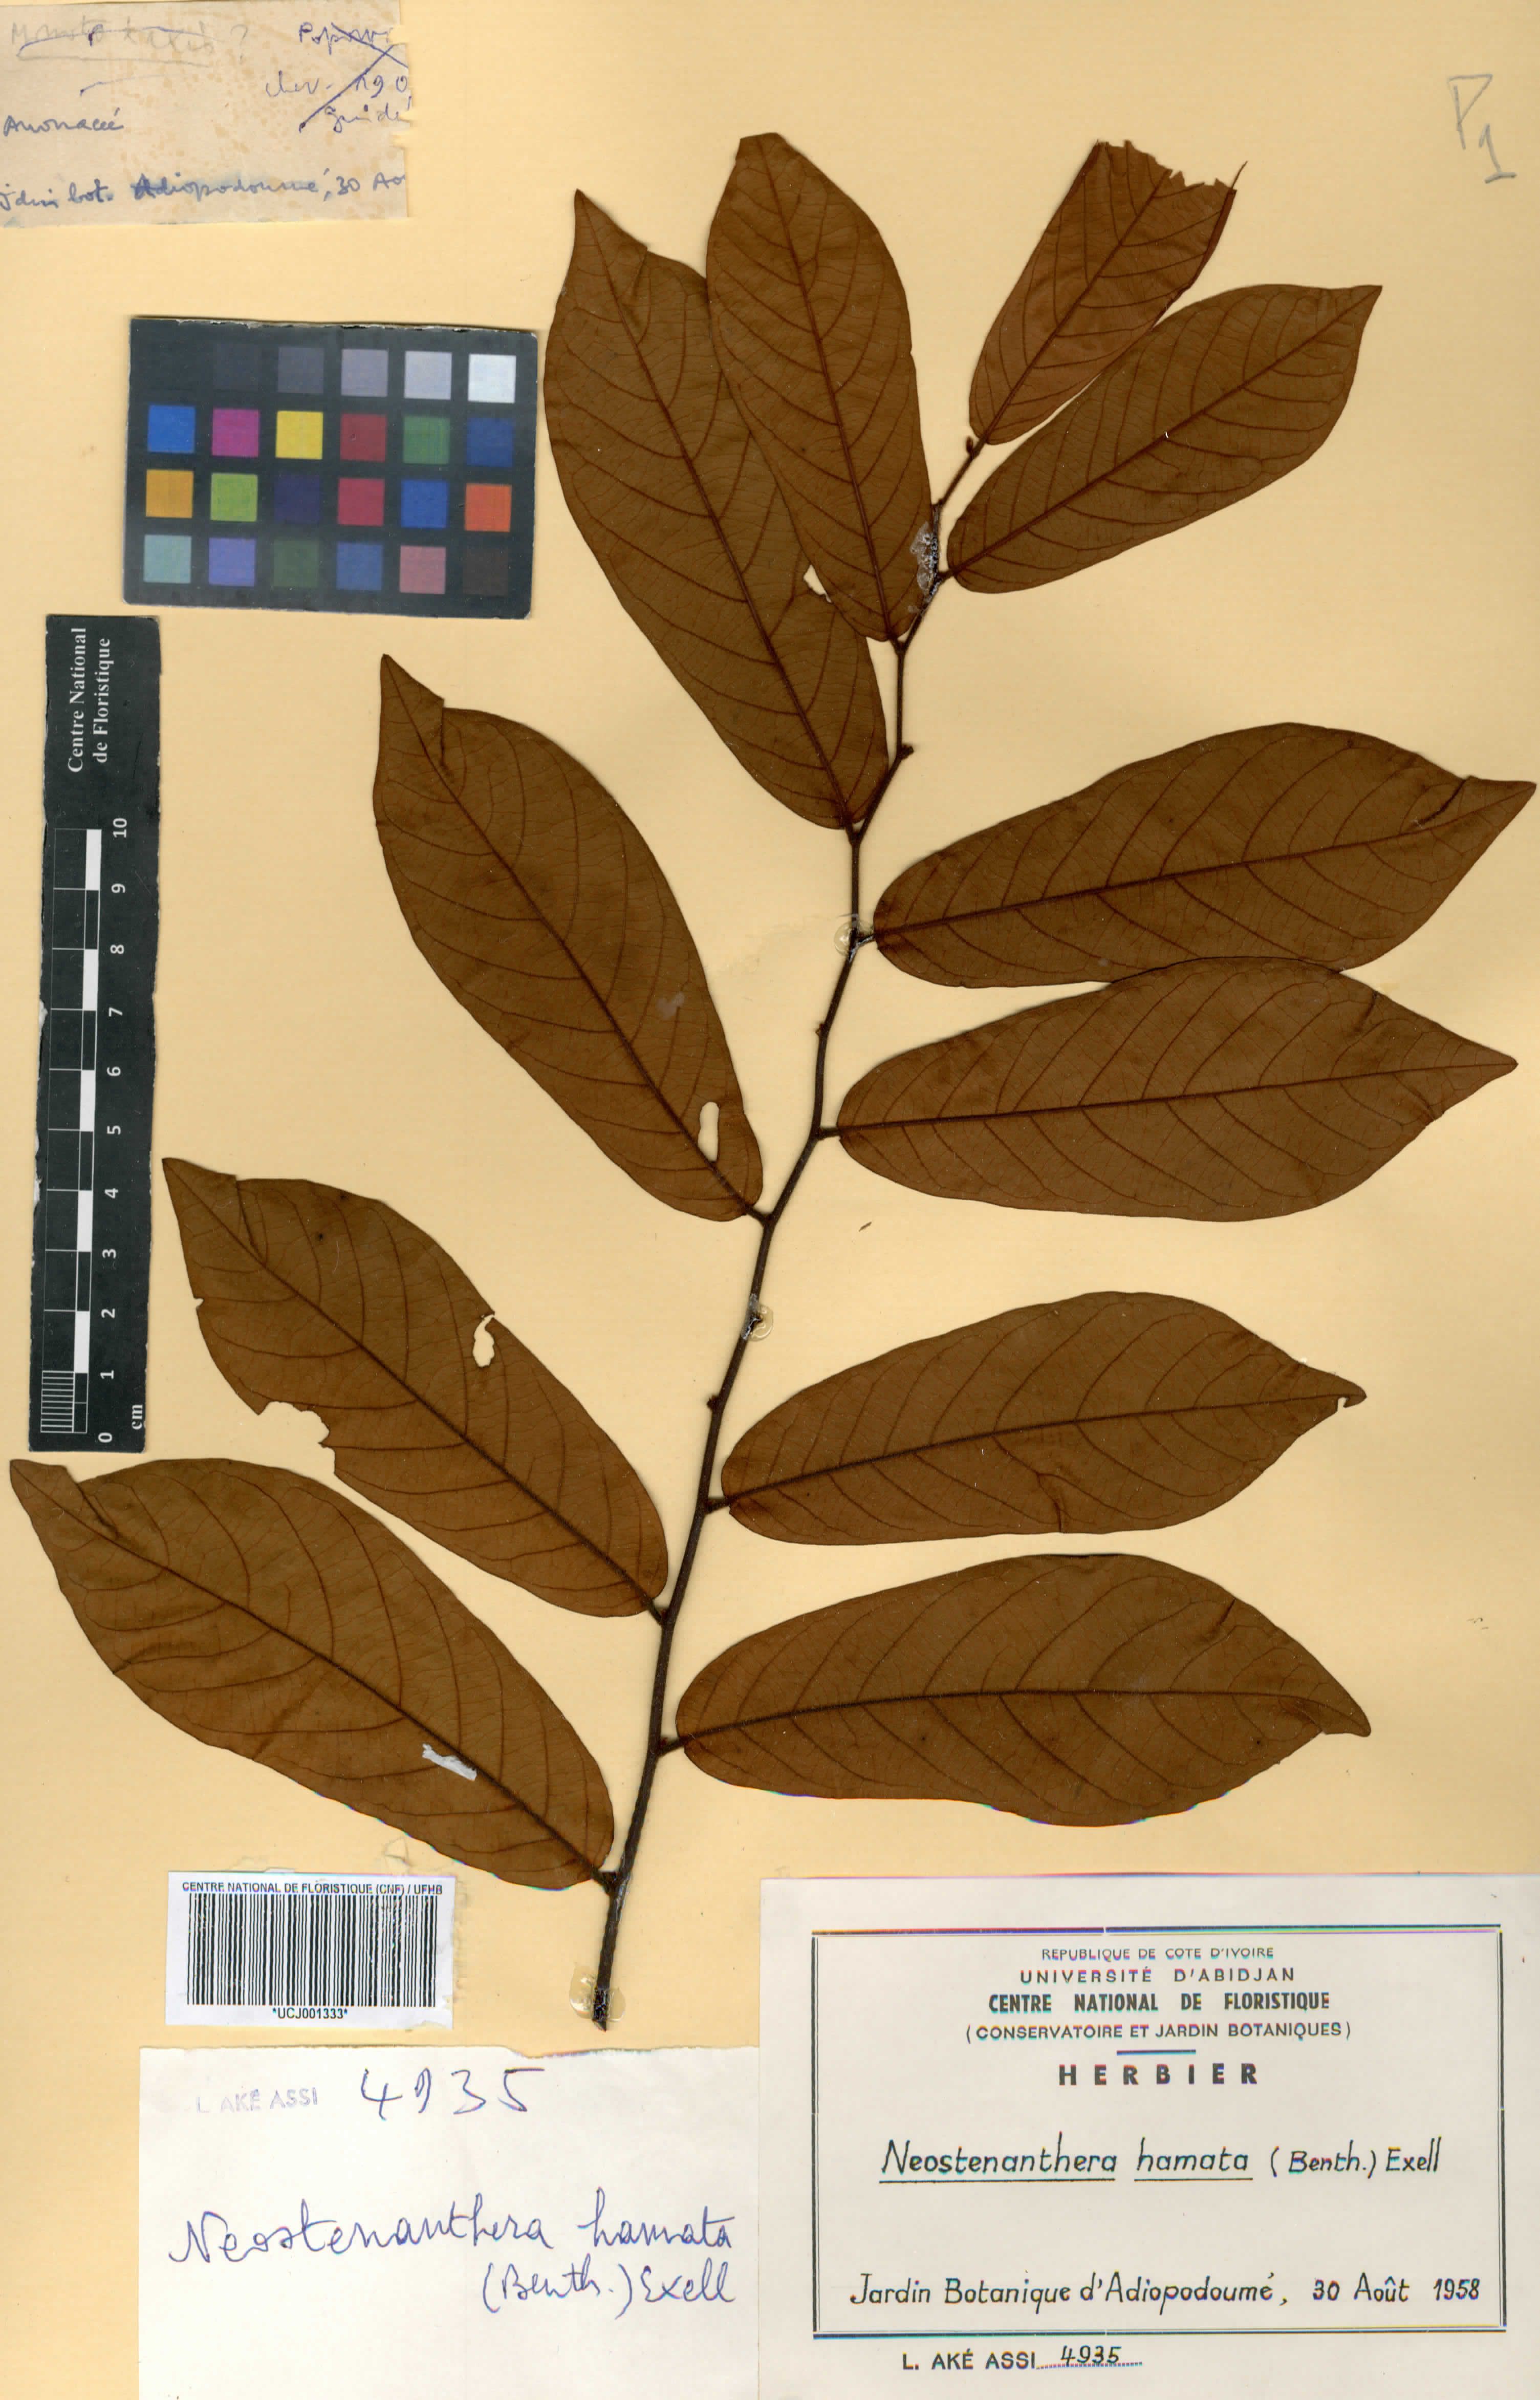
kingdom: Plantae
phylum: Tracheophyta
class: Magnoliopsida
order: Magnoliales
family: Annonaceae
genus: Neostenanthera
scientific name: Neostenanthera hamata
